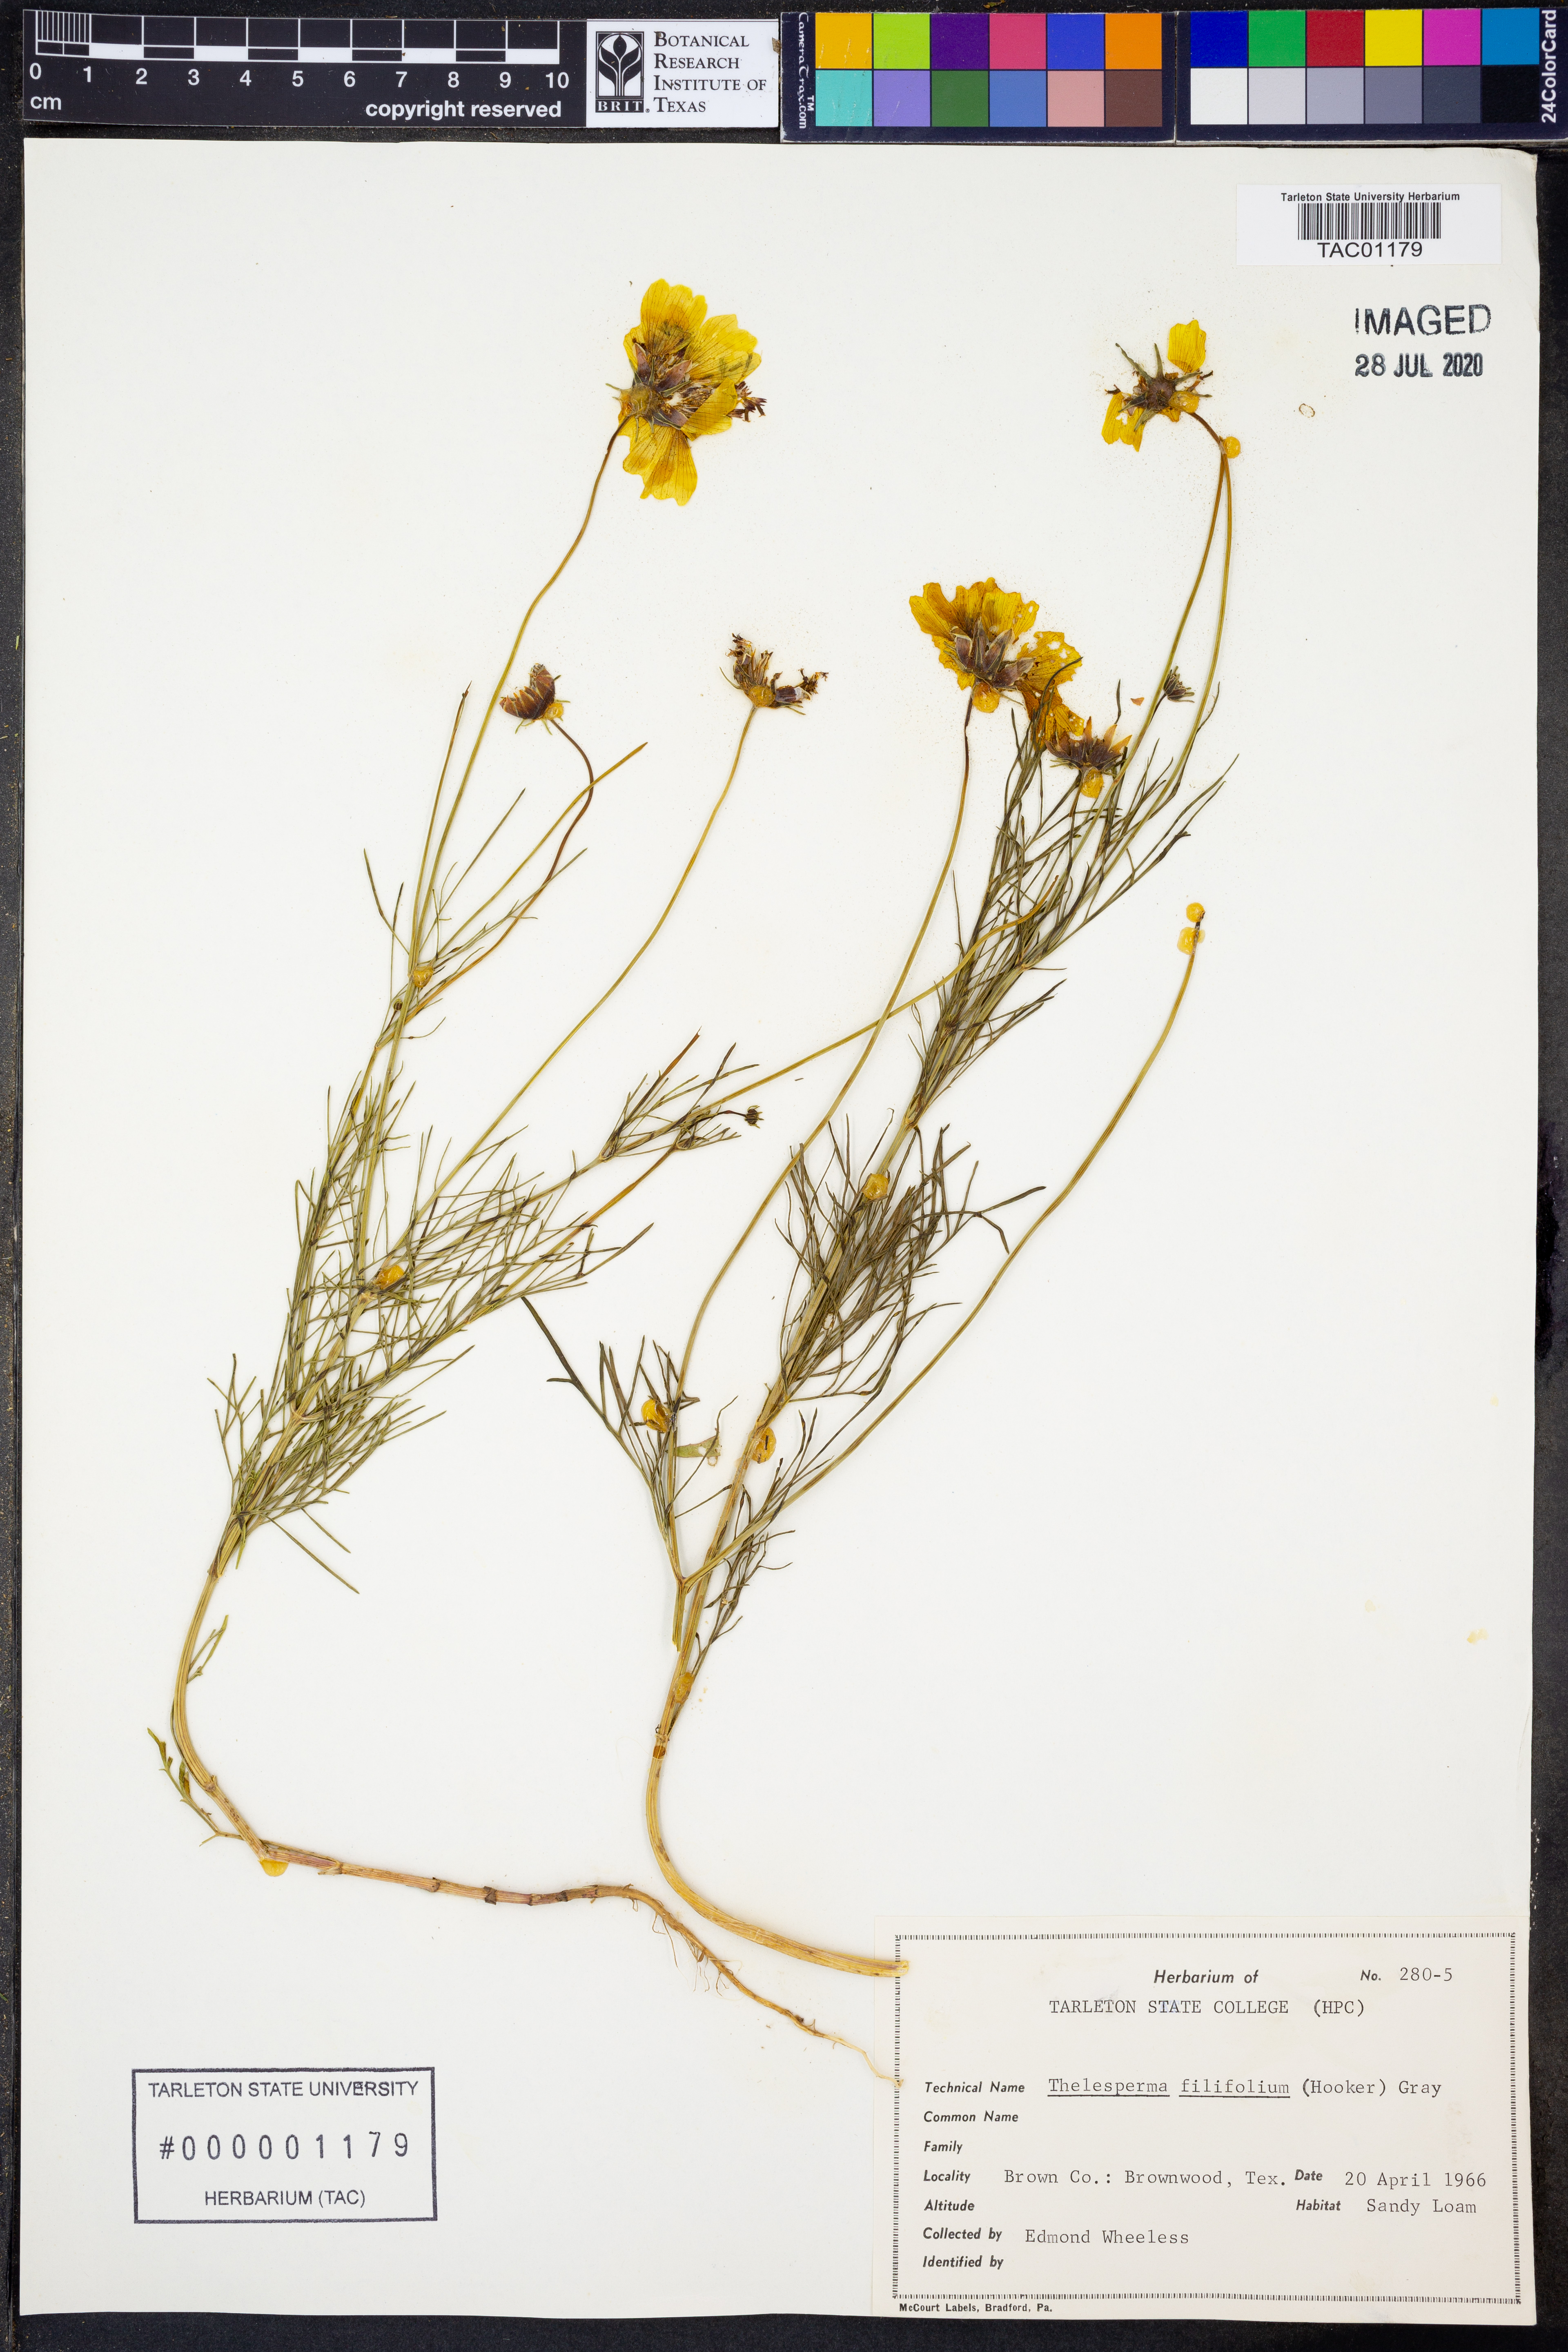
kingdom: Plantae
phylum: Tracheophyta
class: Magnoliopsida
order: Asterales
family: Asteraceae
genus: Thelesperma
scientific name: Thelesperma filifolium
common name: Stiff greenthread
